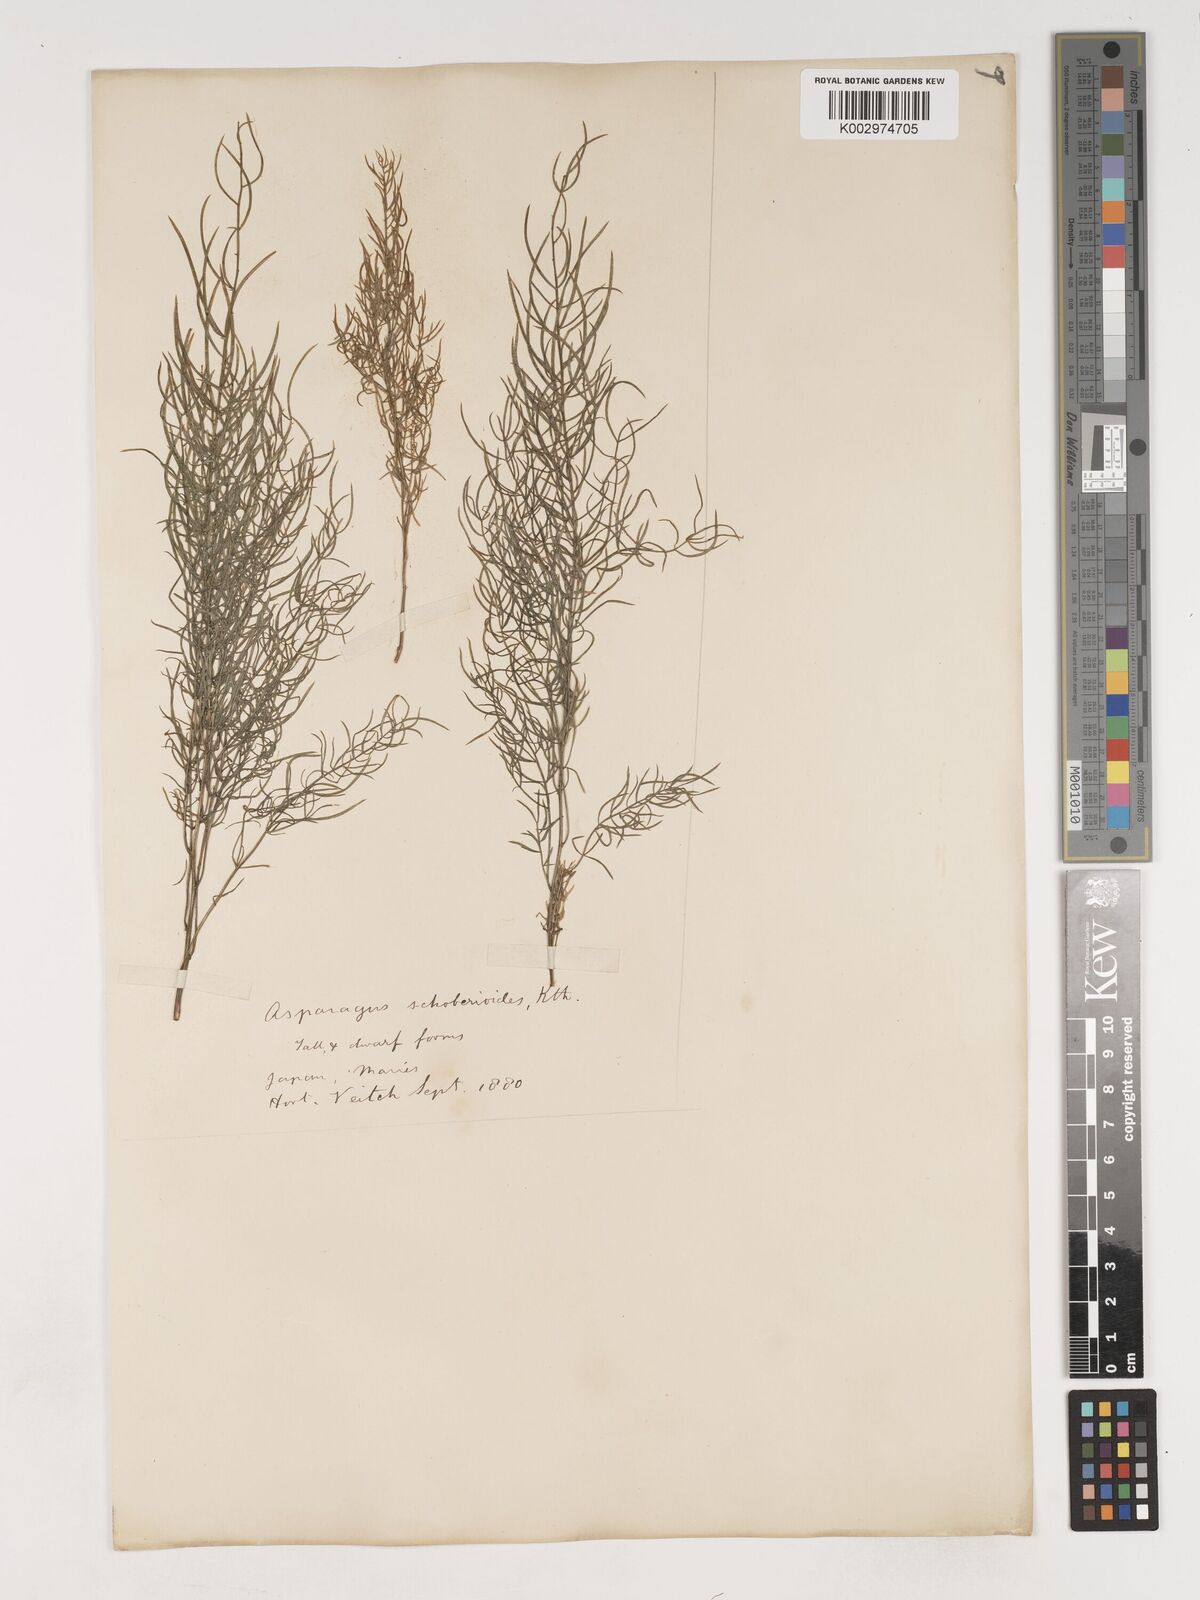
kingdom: Plantae
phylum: Tracheophyta
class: Liliopsida
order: Asparagales
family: Asparagaceae
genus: Asparagus
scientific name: Asparagus schoberioides
